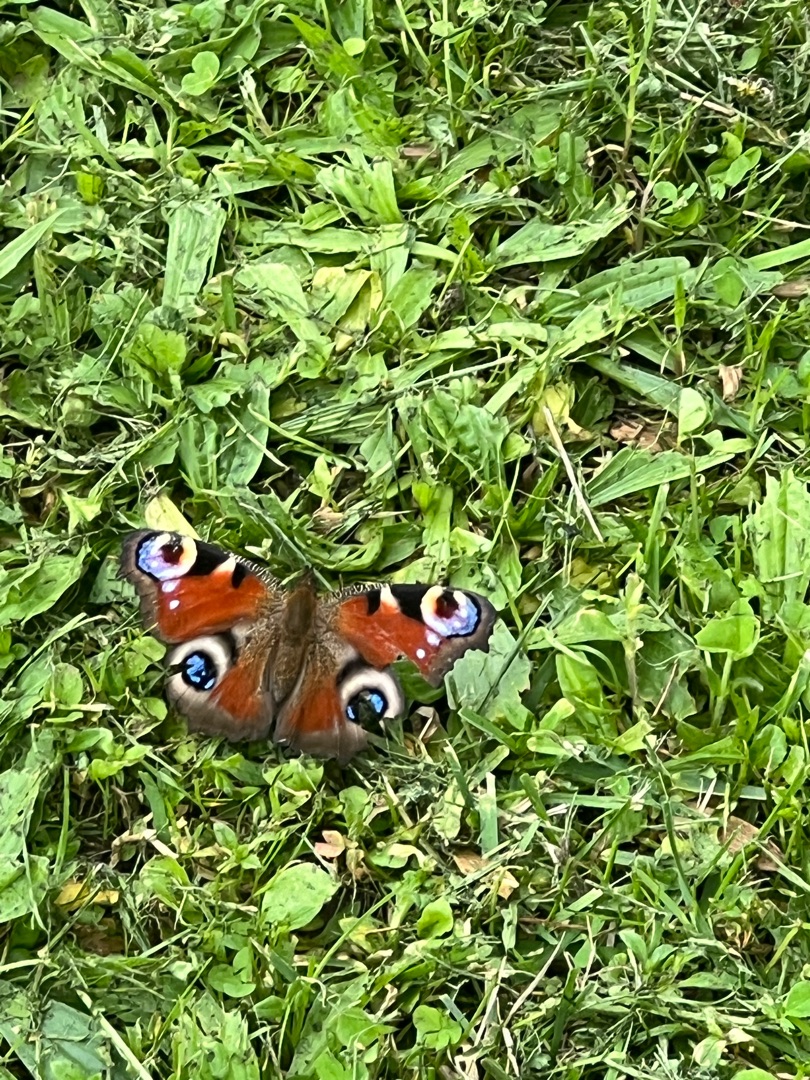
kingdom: Animalia
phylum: Arthropoda
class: Insecta
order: Lepidoptera
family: Nymphalidae
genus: Aglais
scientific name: Aglais io
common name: Dagpåfugleøje
